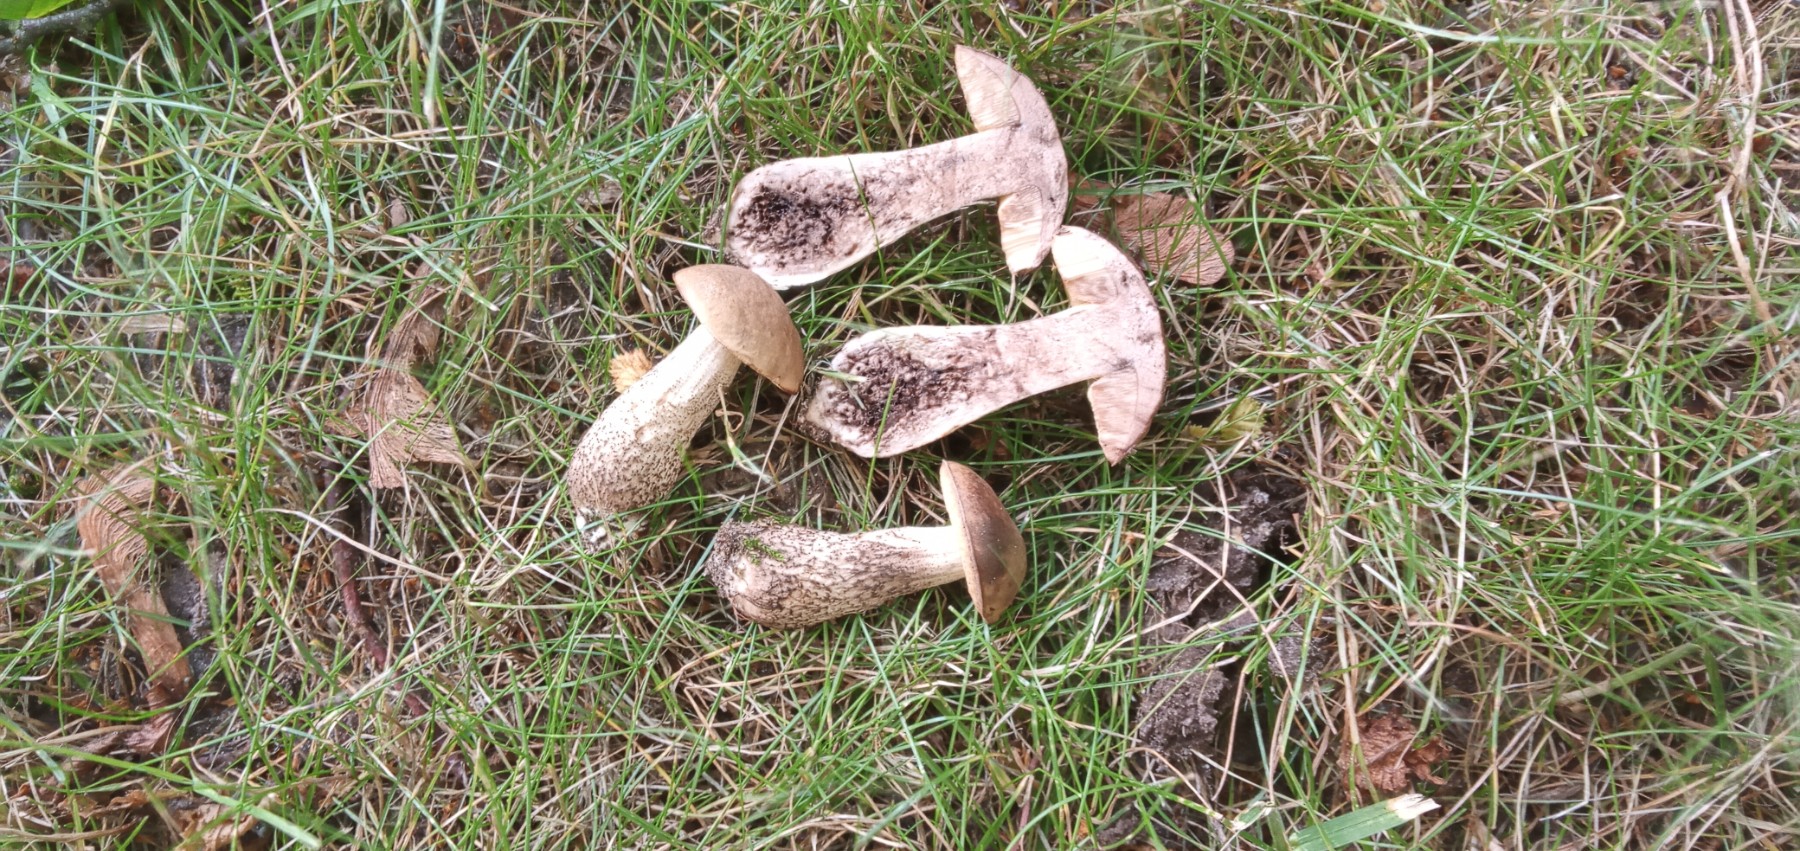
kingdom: Fungi
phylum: Basidiomycota
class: Agaricomycetes
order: Boletales
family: Boletaceae
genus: Leccinellum
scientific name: Leccinellum pseudoscabrum
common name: avnbøg-skælrørhat
